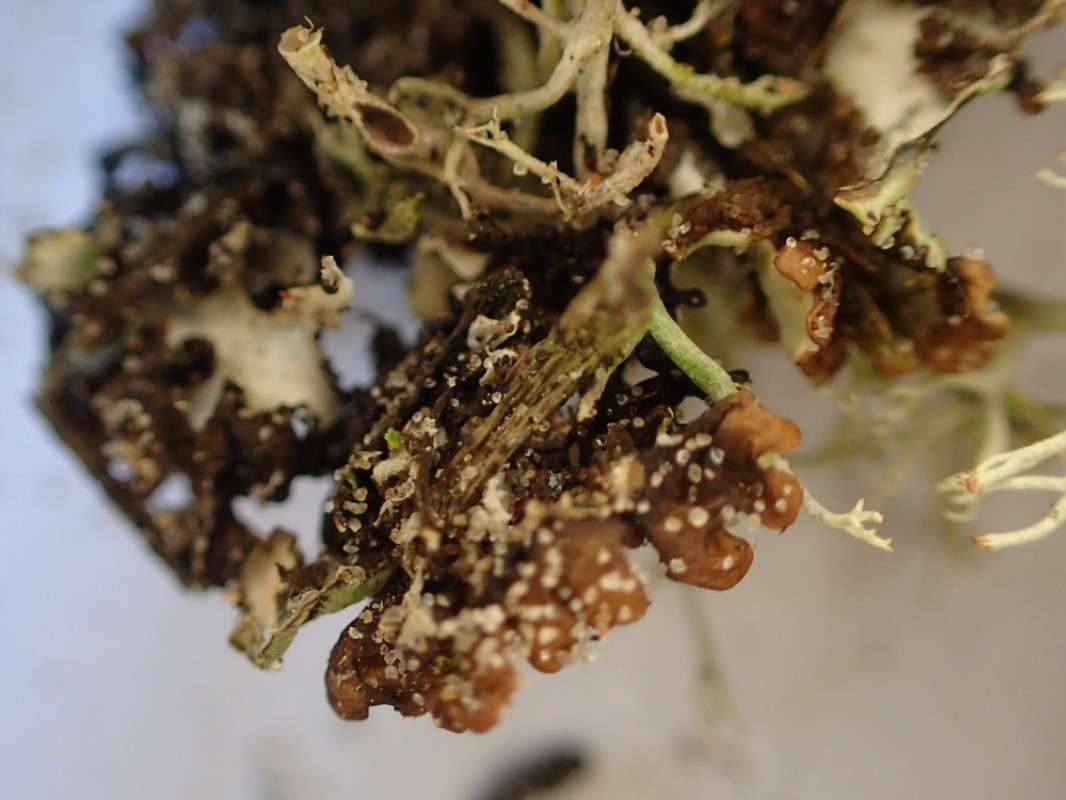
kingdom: Fungi
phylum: Ascomycota
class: Lecanoromycetes
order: Lecanorales
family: Parmeliaceae
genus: Hypogymnia
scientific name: Hypogymnia physodes
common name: almindelig kvistlav
